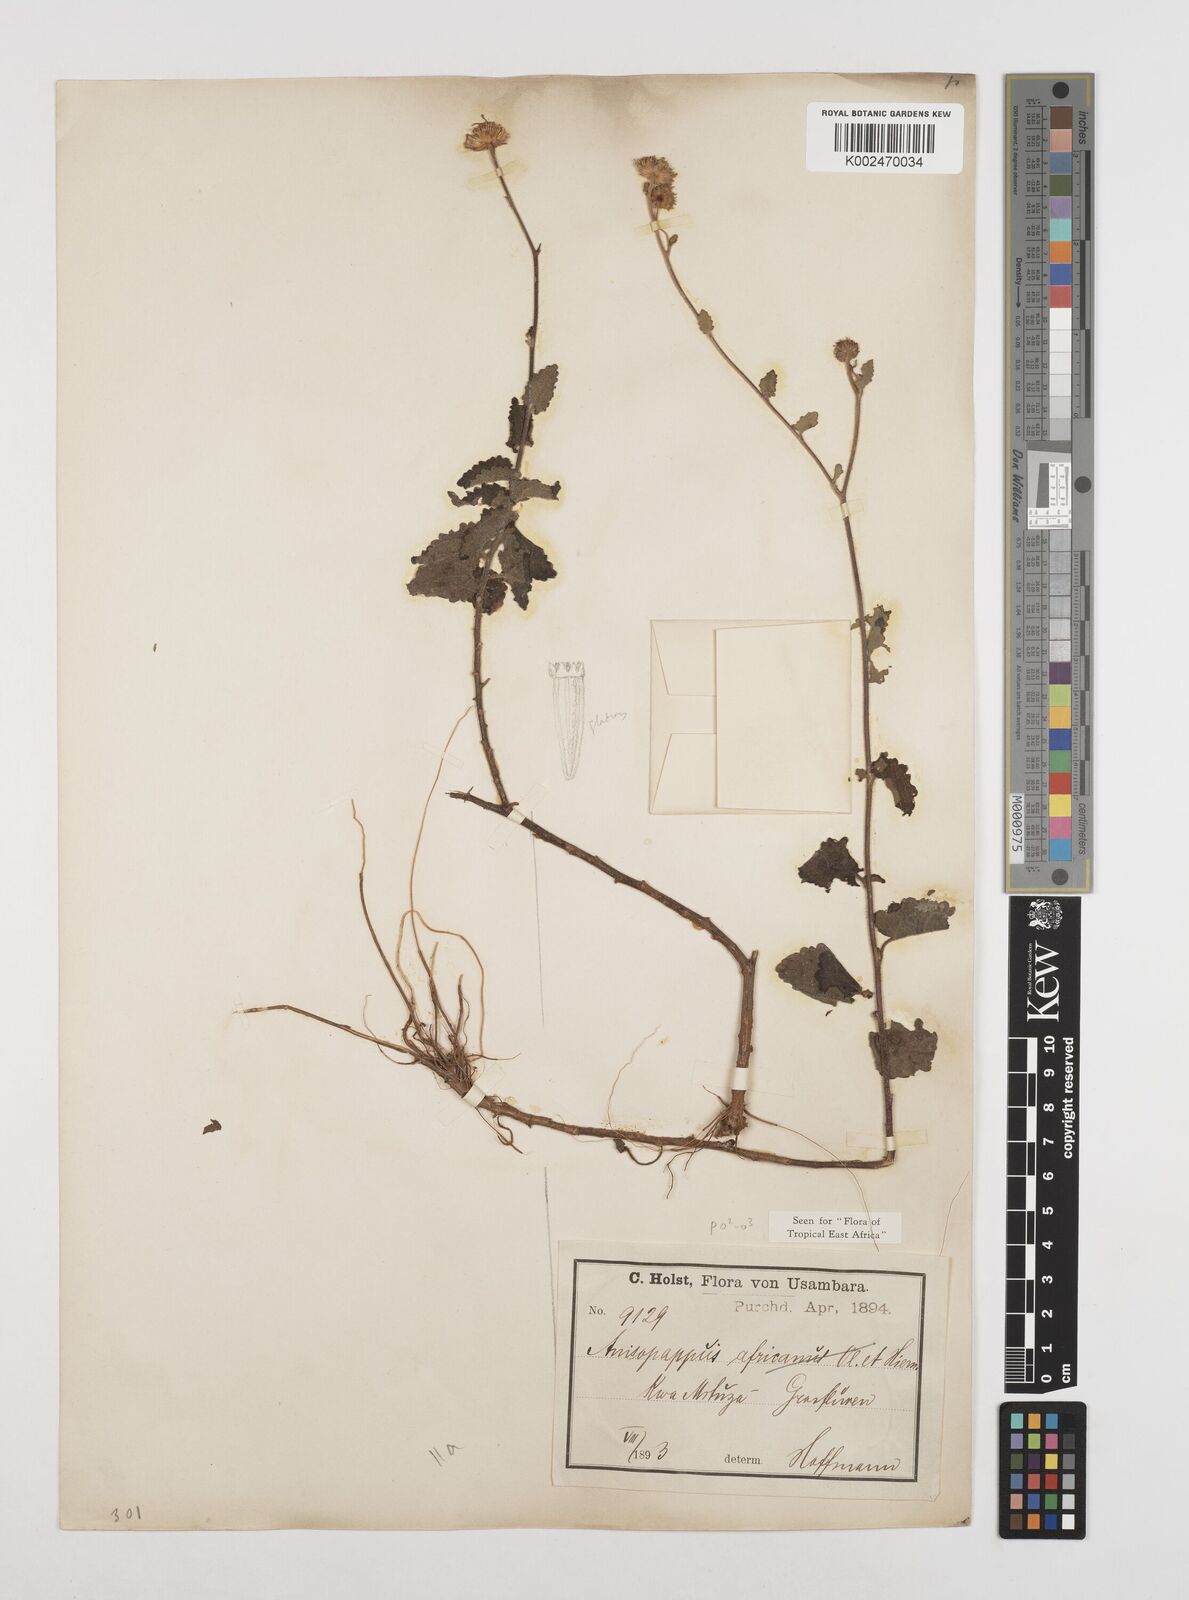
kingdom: Plantae
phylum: Tracheophyta
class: Magnoliopsida
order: Asterales
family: Asteraceae
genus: Anisopappus
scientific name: Anisopappus buchwaldii
